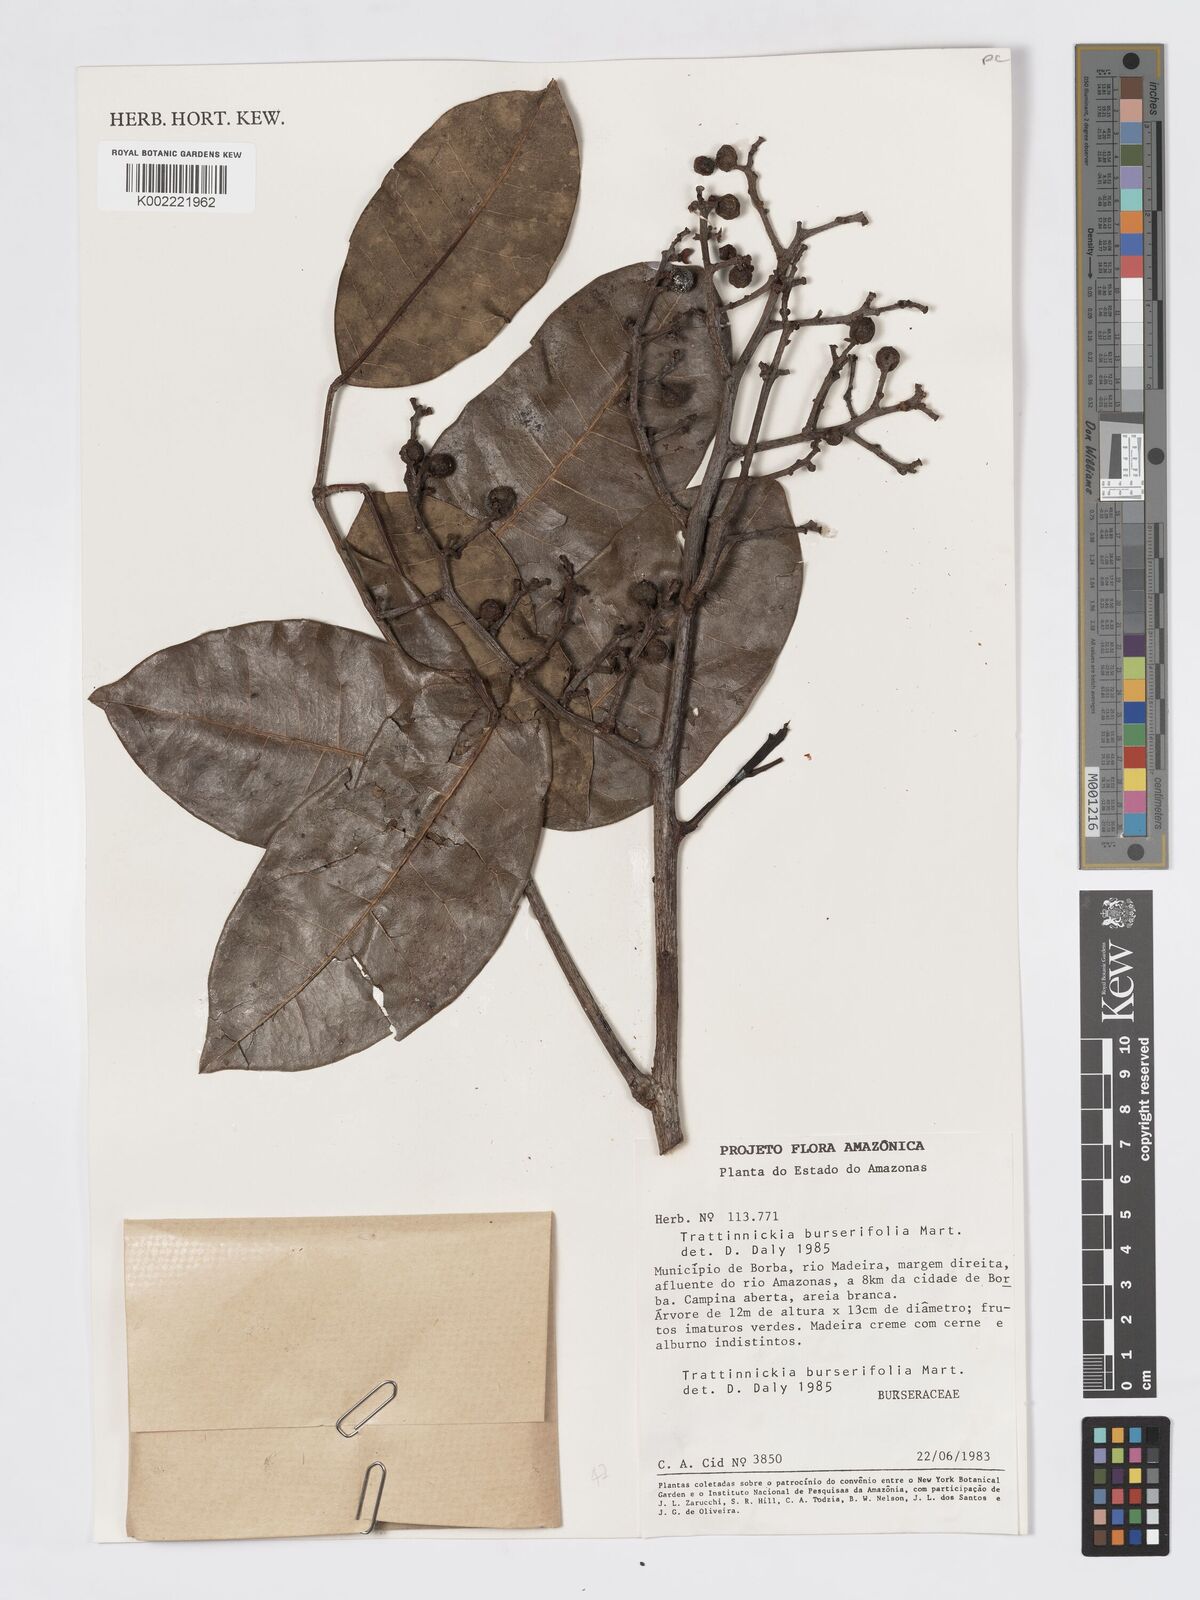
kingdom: Plantae
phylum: Tracheophyta
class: Magnoliopsida
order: Sapindales
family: Burseraceae
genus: Trattinnickia
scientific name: Trattinnickia burserifolia
